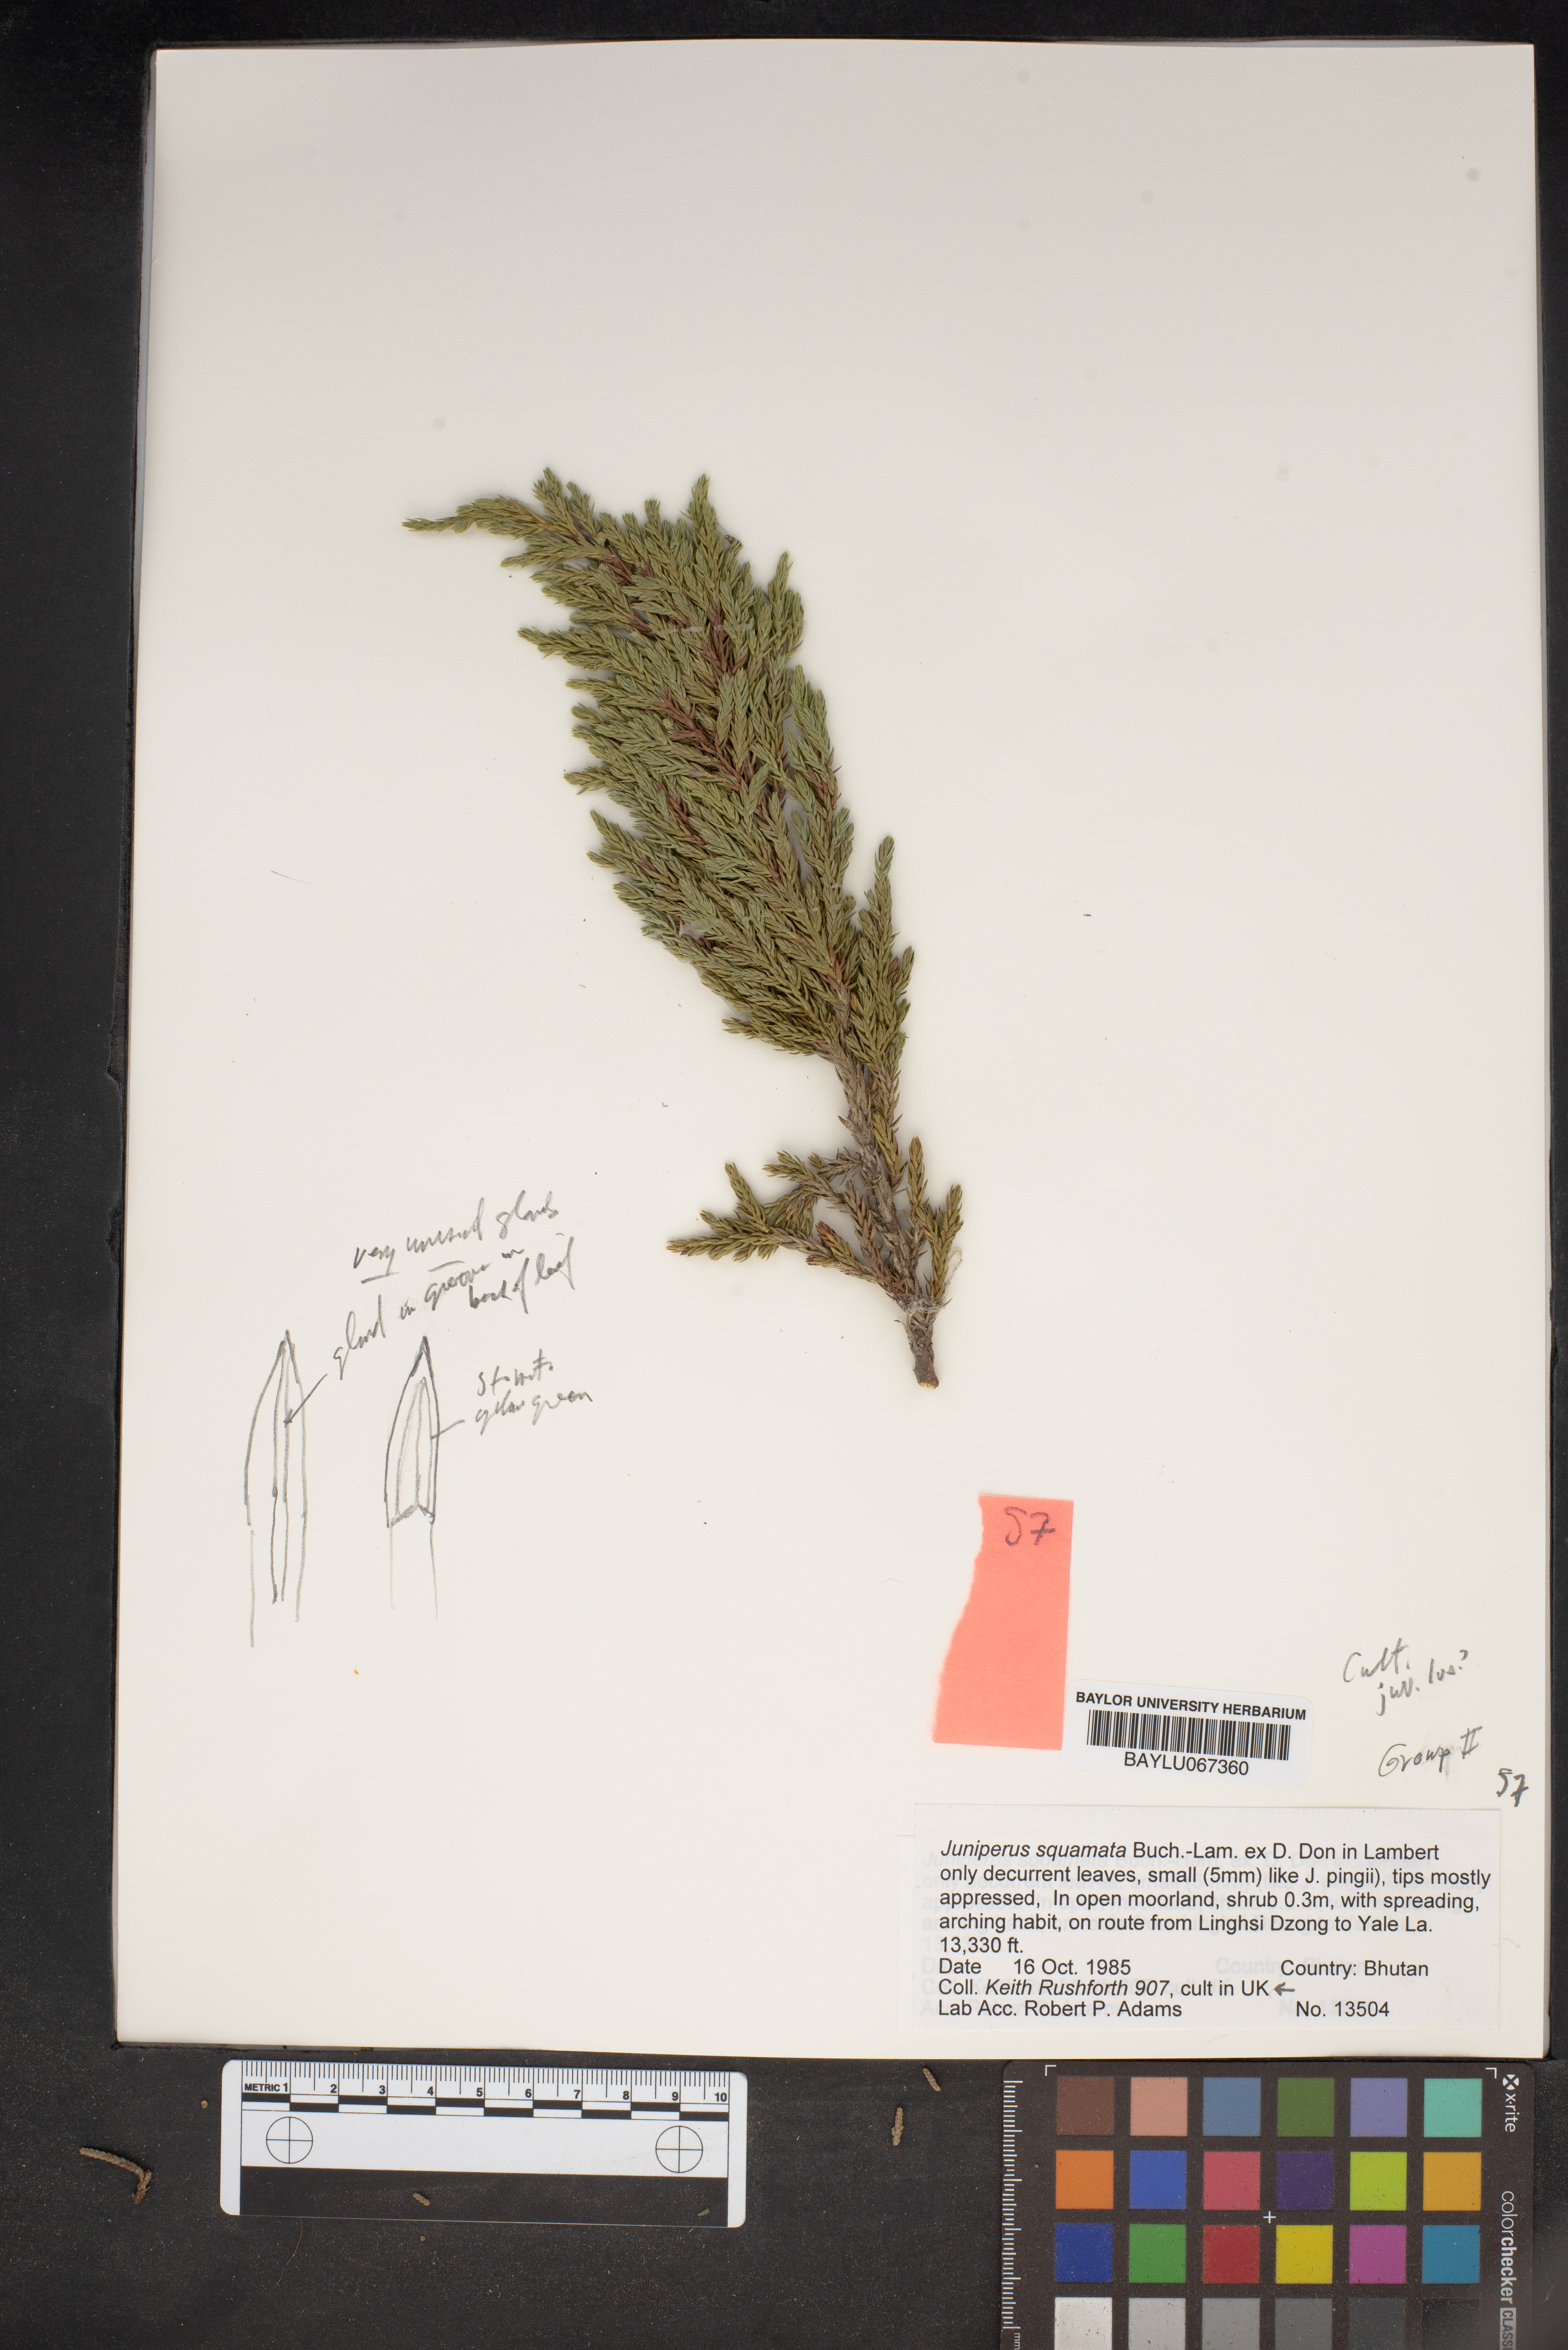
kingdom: Plantae
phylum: Tracheophyta
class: Pinopsida
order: Pinales
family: Cupressaceae
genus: Juniperus
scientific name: Juniperus squamata
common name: Flaky juniper
